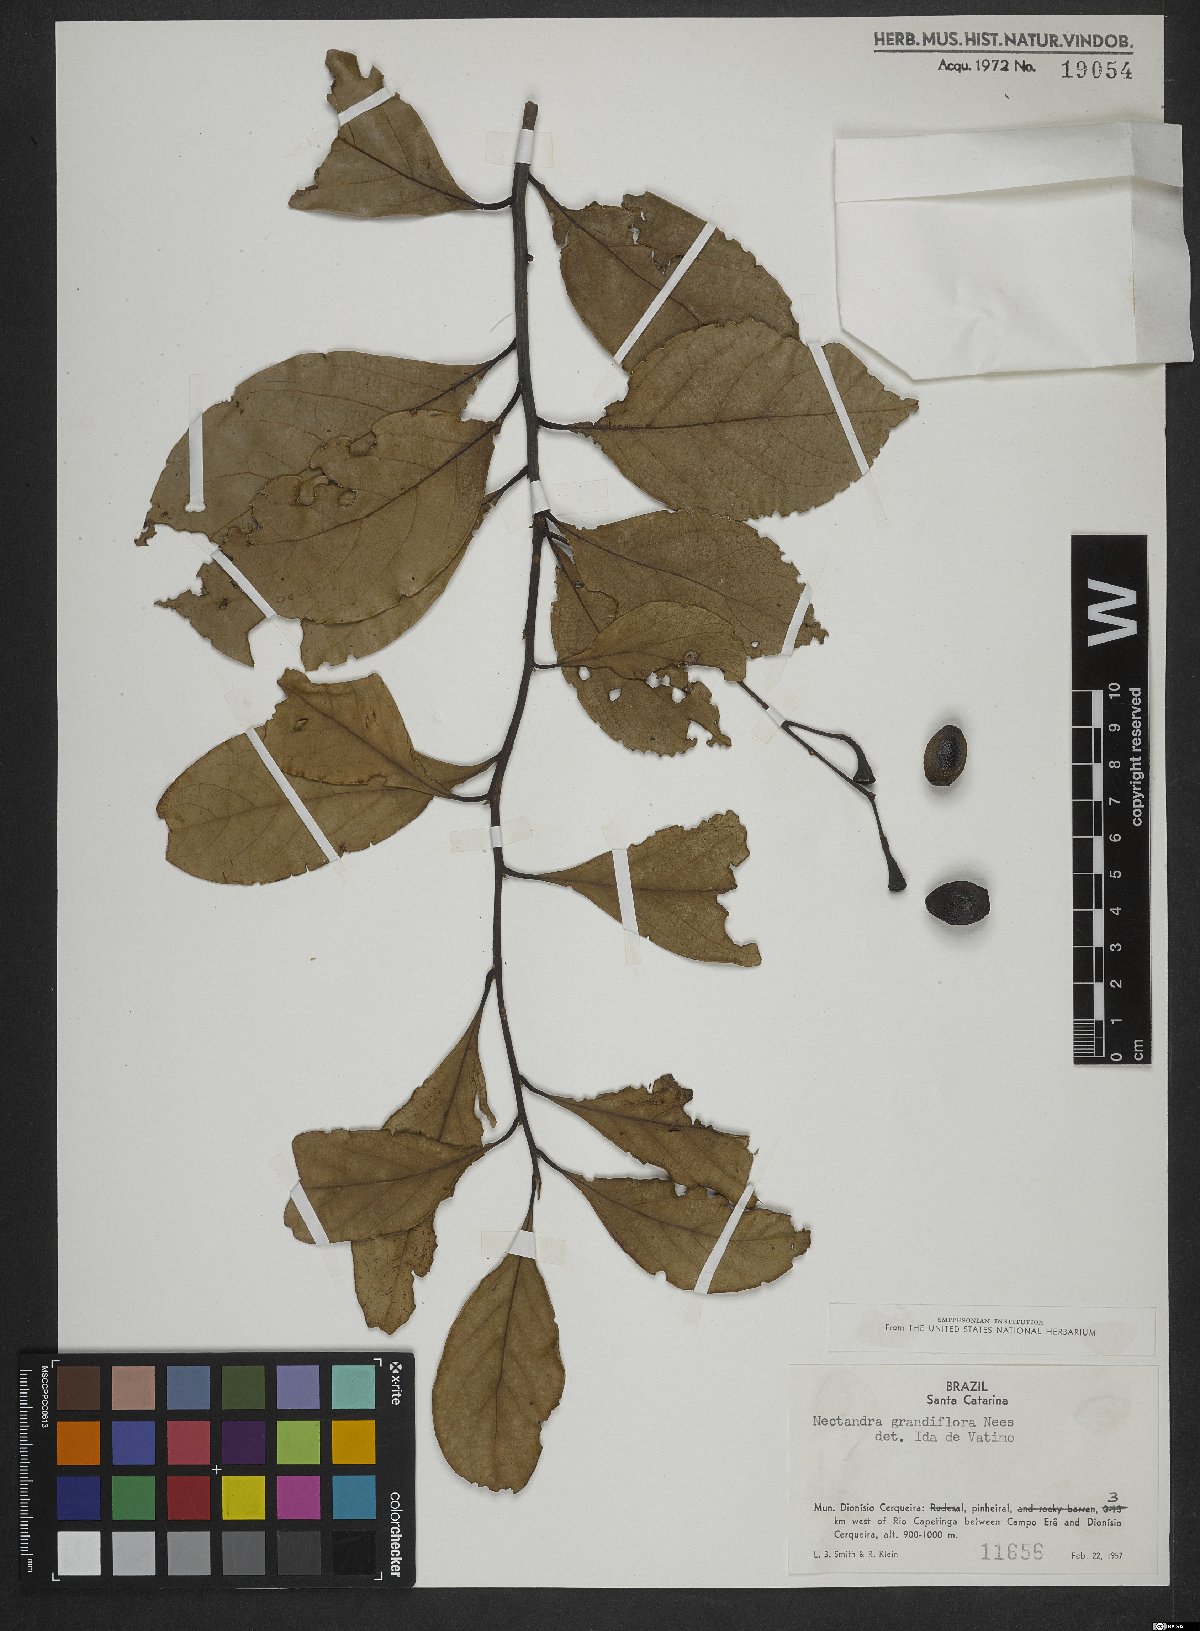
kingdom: Plantae
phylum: Tracheophyta
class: Magnoliopsida
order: Laurales
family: Lauraceae
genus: Nectandra
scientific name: Nectandra grandiflora
